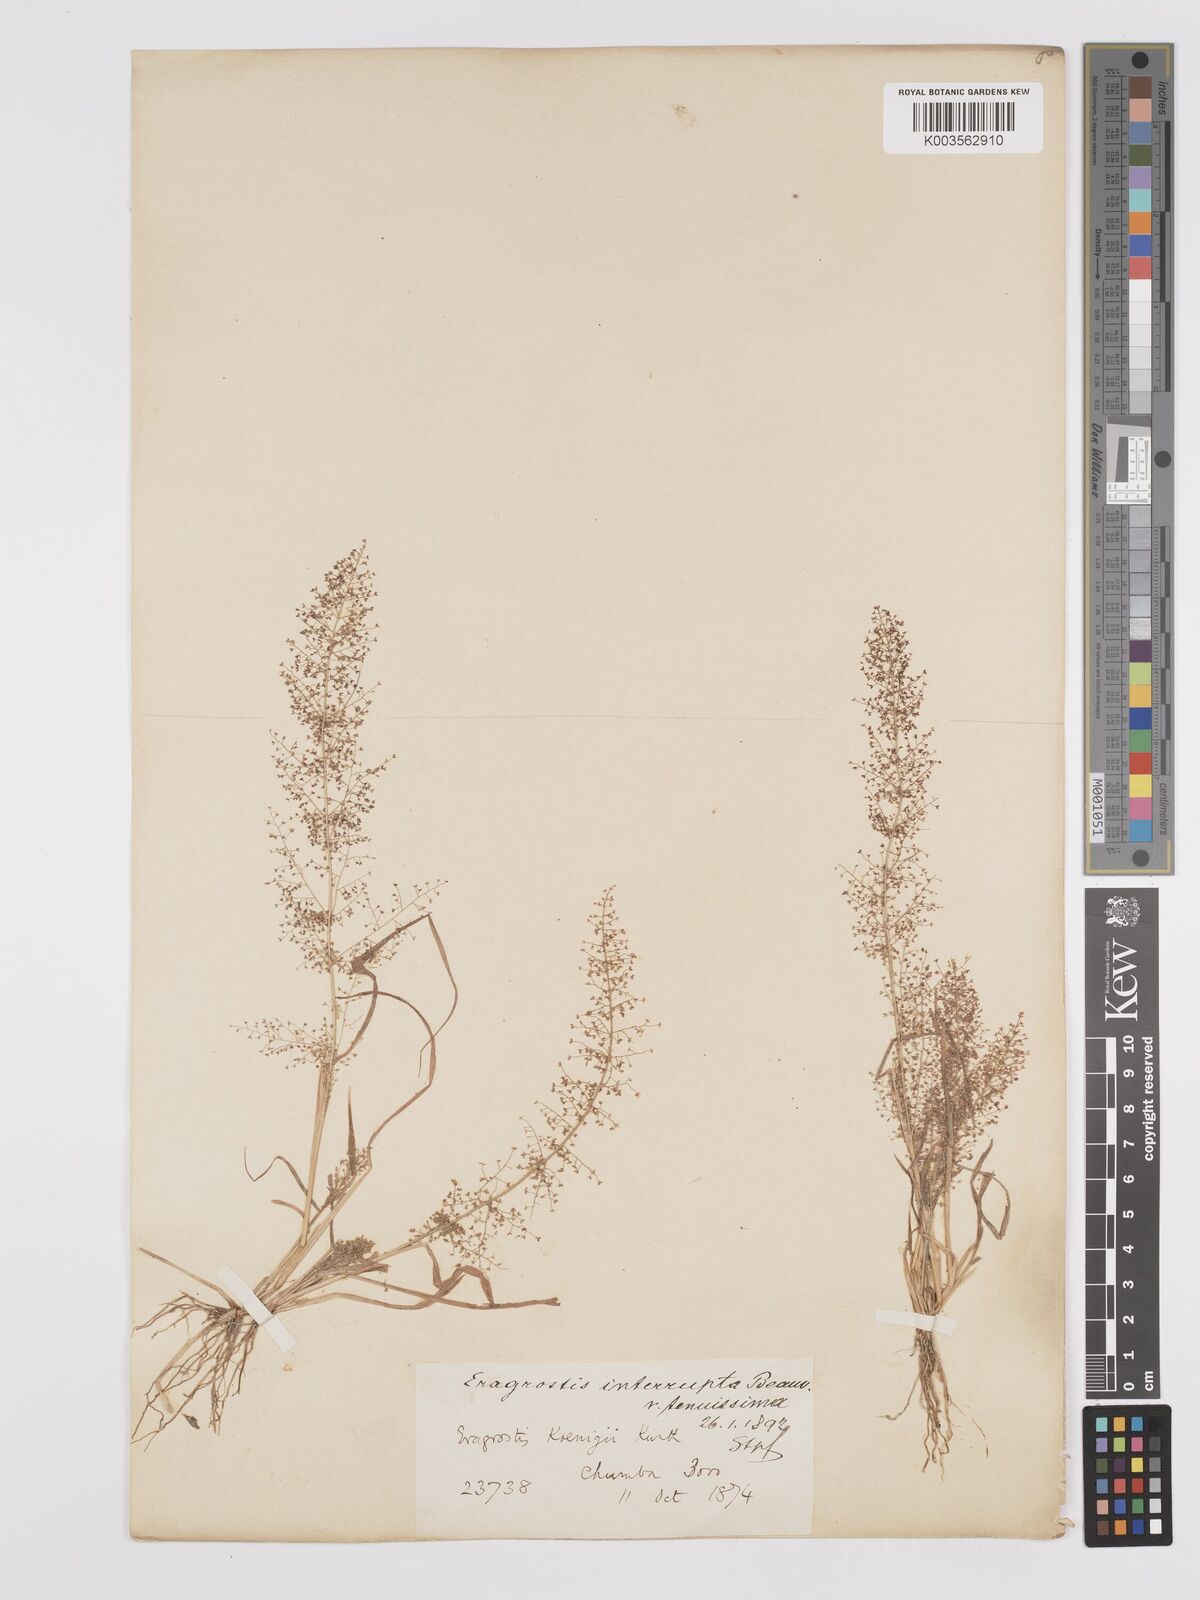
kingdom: Plantae
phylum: Tracheophyta
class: Liliopsida
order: Poales
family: Poaceae
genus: Eragrostis
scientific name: Eragrostis japonica
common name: Pond lovegrass
